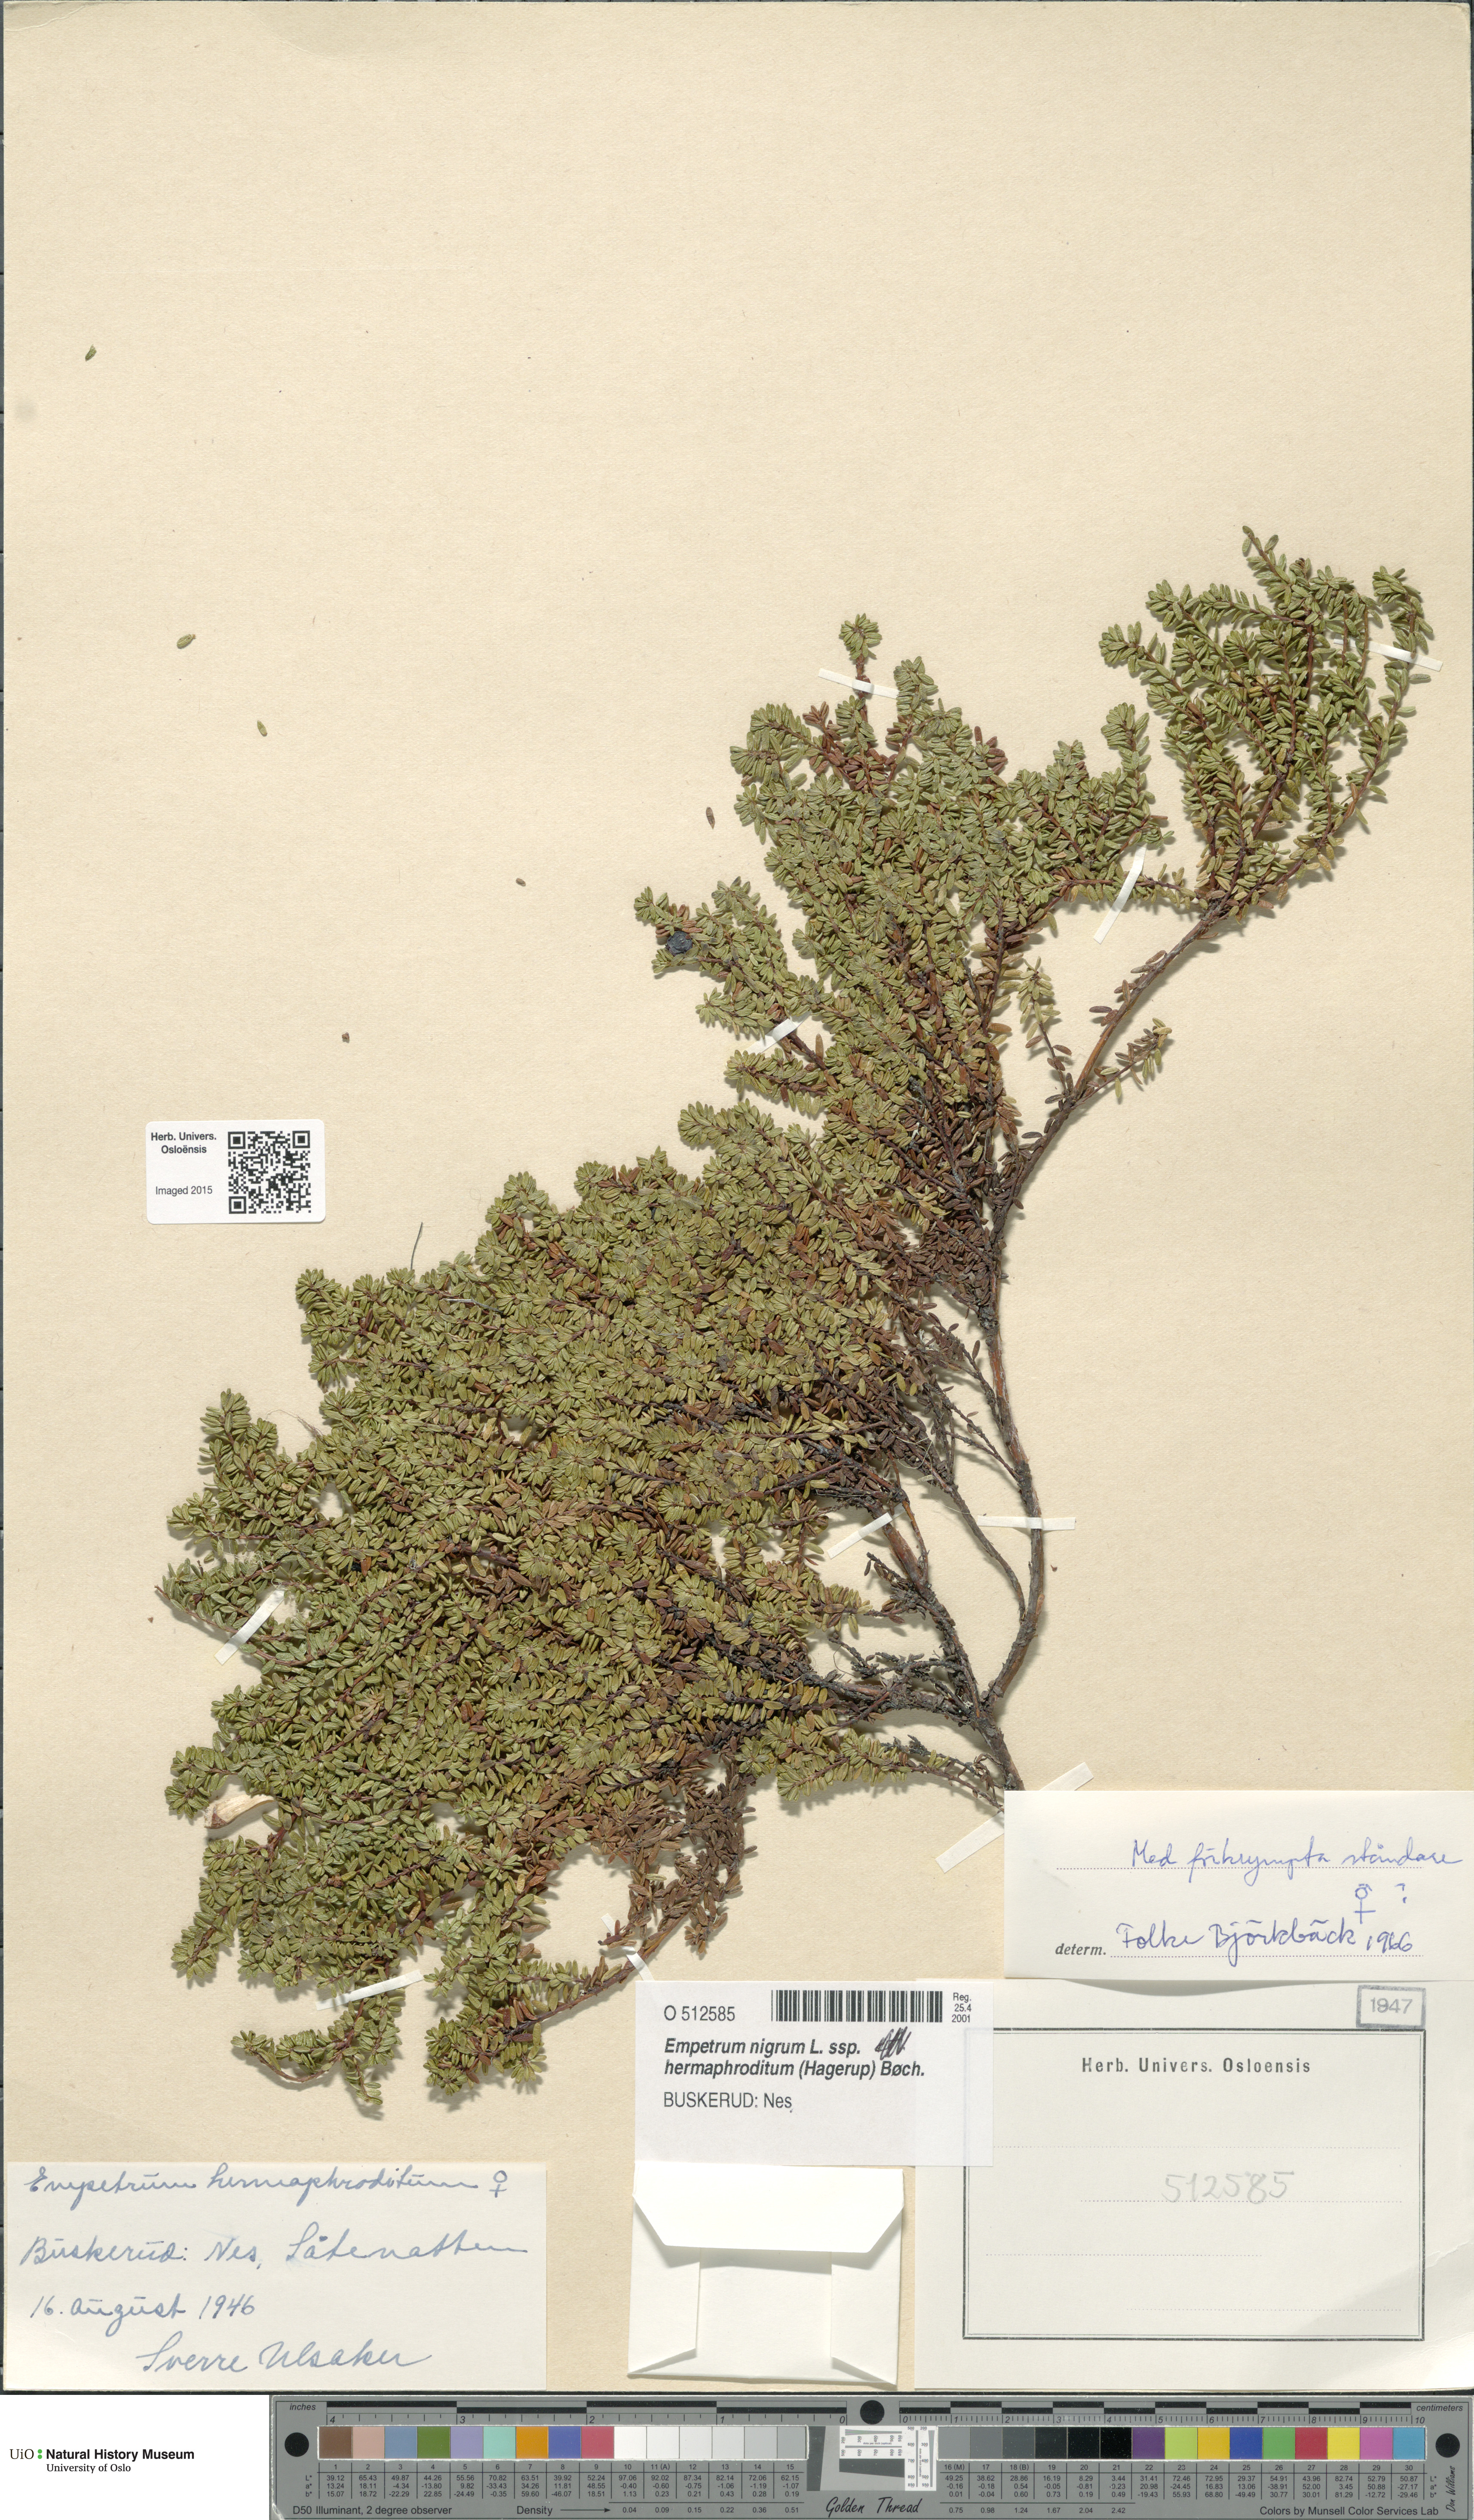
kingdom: Plantae
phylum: Tracheophyta
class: Magnoliopsida
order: Ericales
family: Ericaceae
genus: Empetrum
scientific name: Empetrum hermaphroditum
